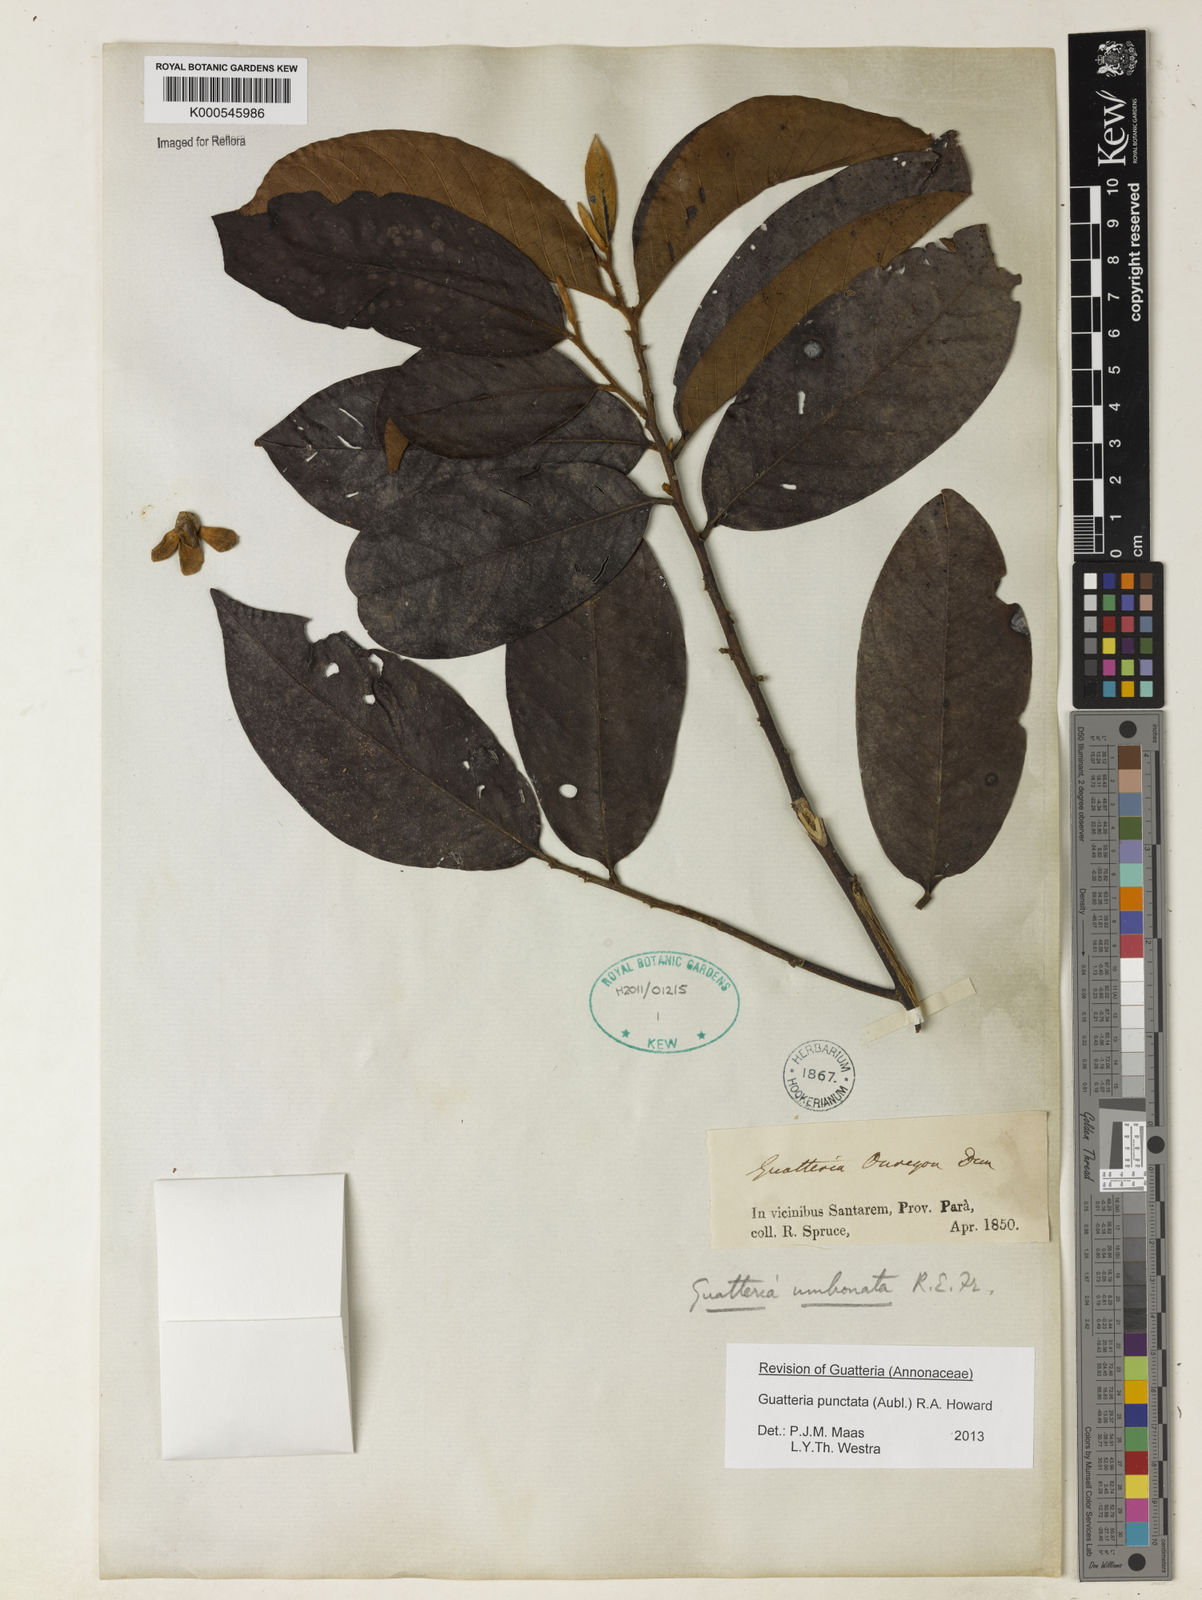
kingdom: Plantae
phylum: Tracheophyta
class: Magnoliopsida
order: Magnoliales
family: Annonaceae
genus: Guatteria
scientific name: Guatteria umbonata
